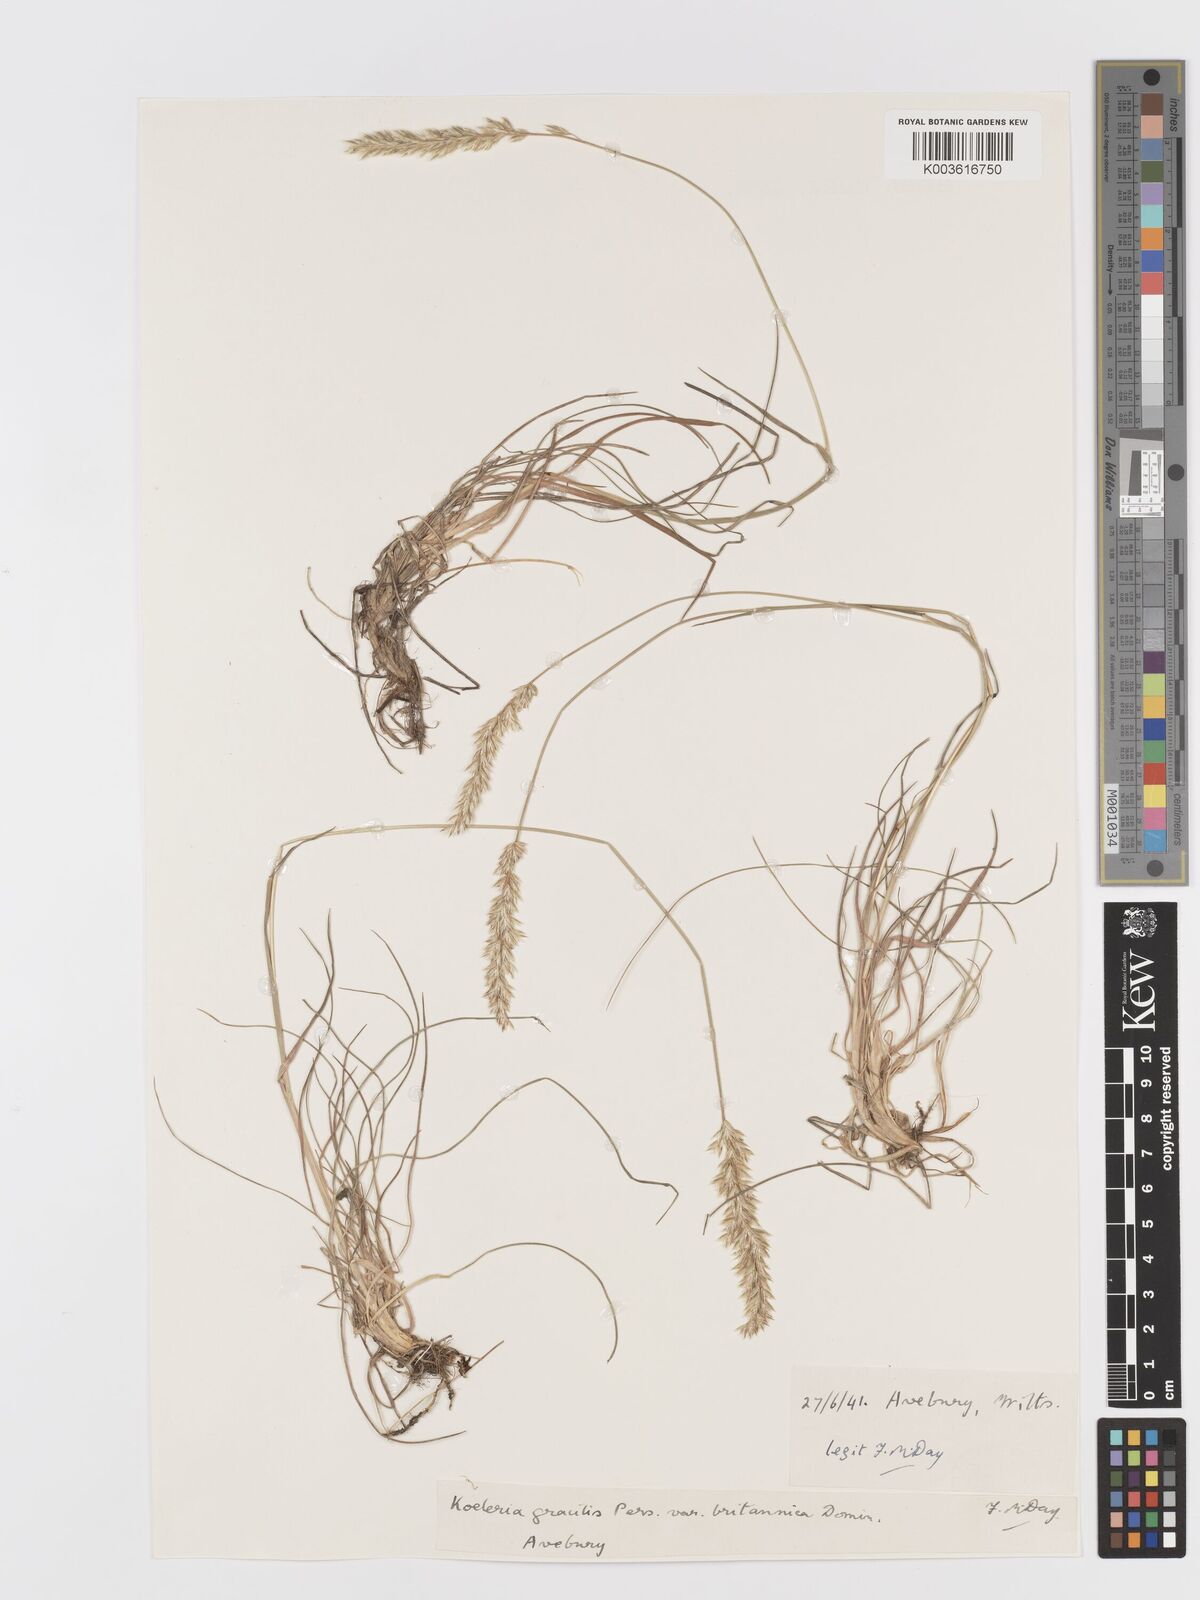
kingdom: Plantae
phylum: Tracheophyta
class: Liliopsida
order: Poales
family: Poaceae
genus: Koeleria
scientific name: Koeleria
